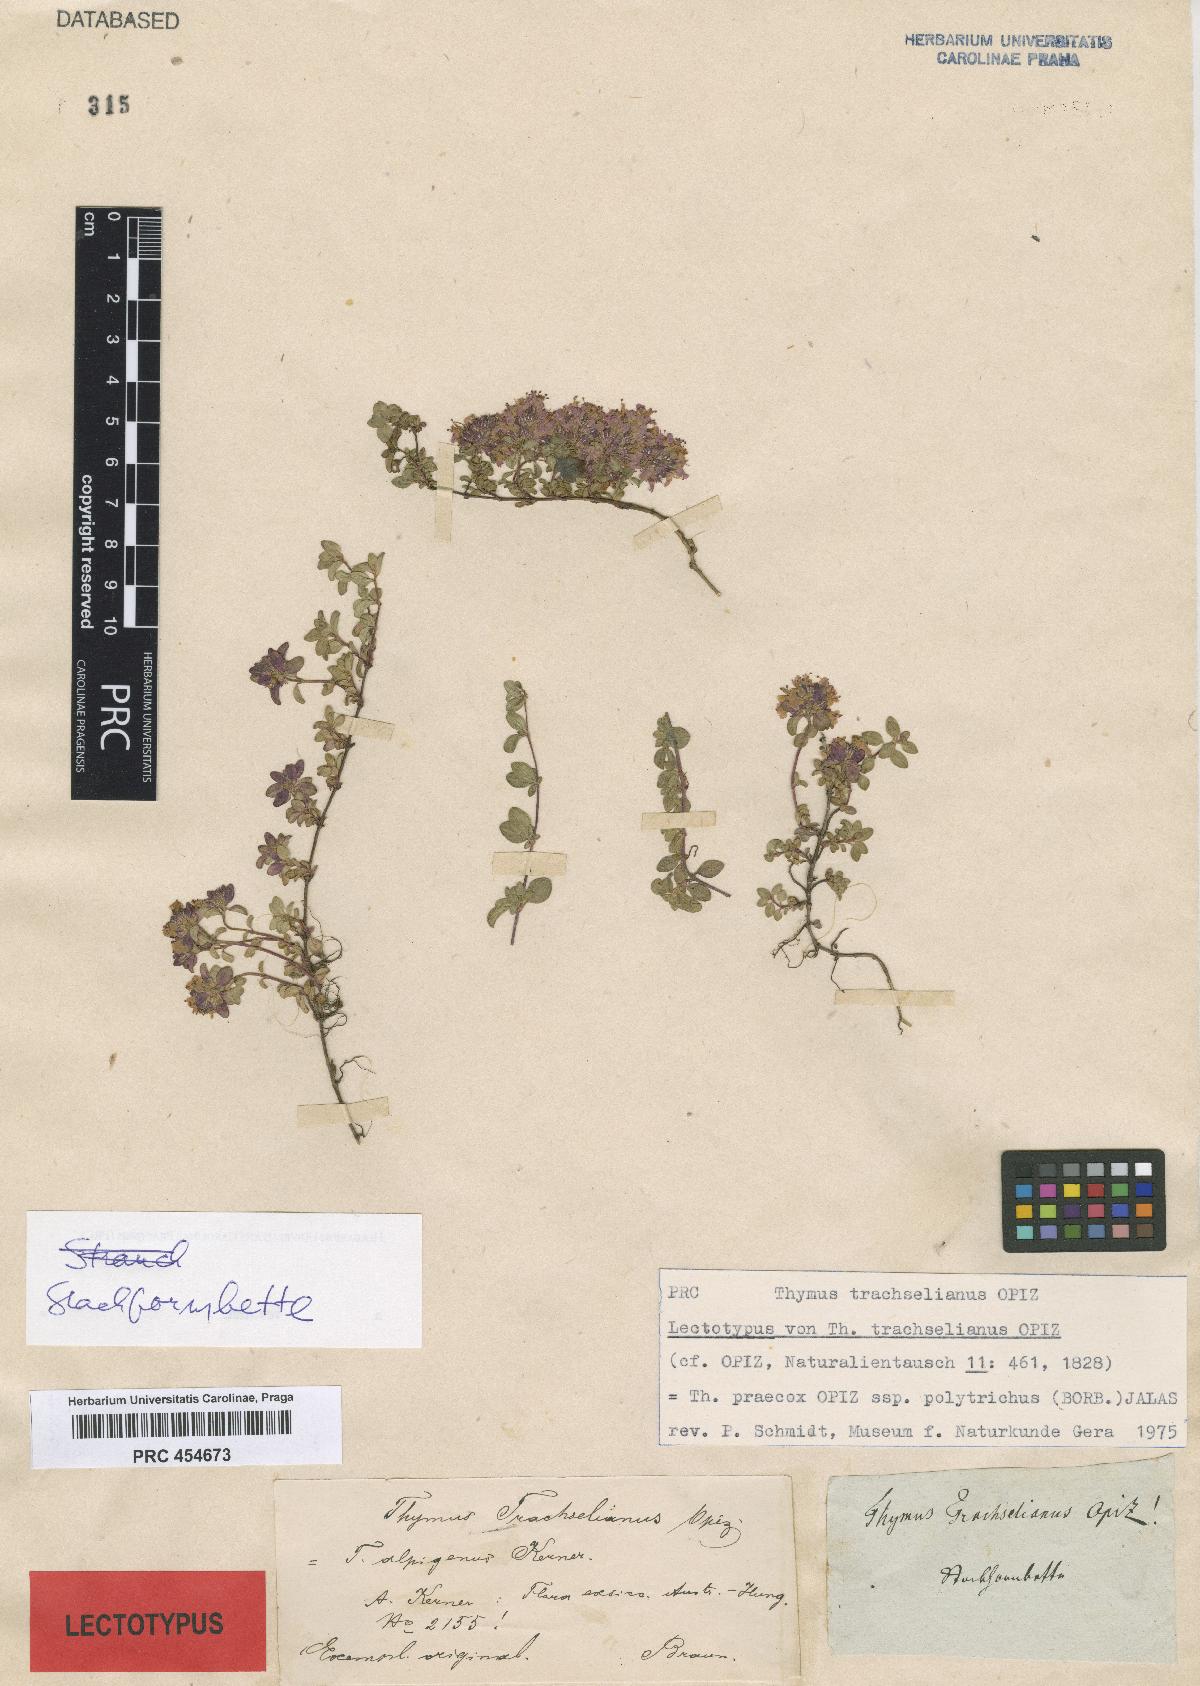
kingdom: Plantae
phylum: Tracheophyta
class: Magnoliopsida
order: Lamiales
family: Lamiaceae
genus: Thymus
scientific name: Thymus praecox
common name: Wild thyme
